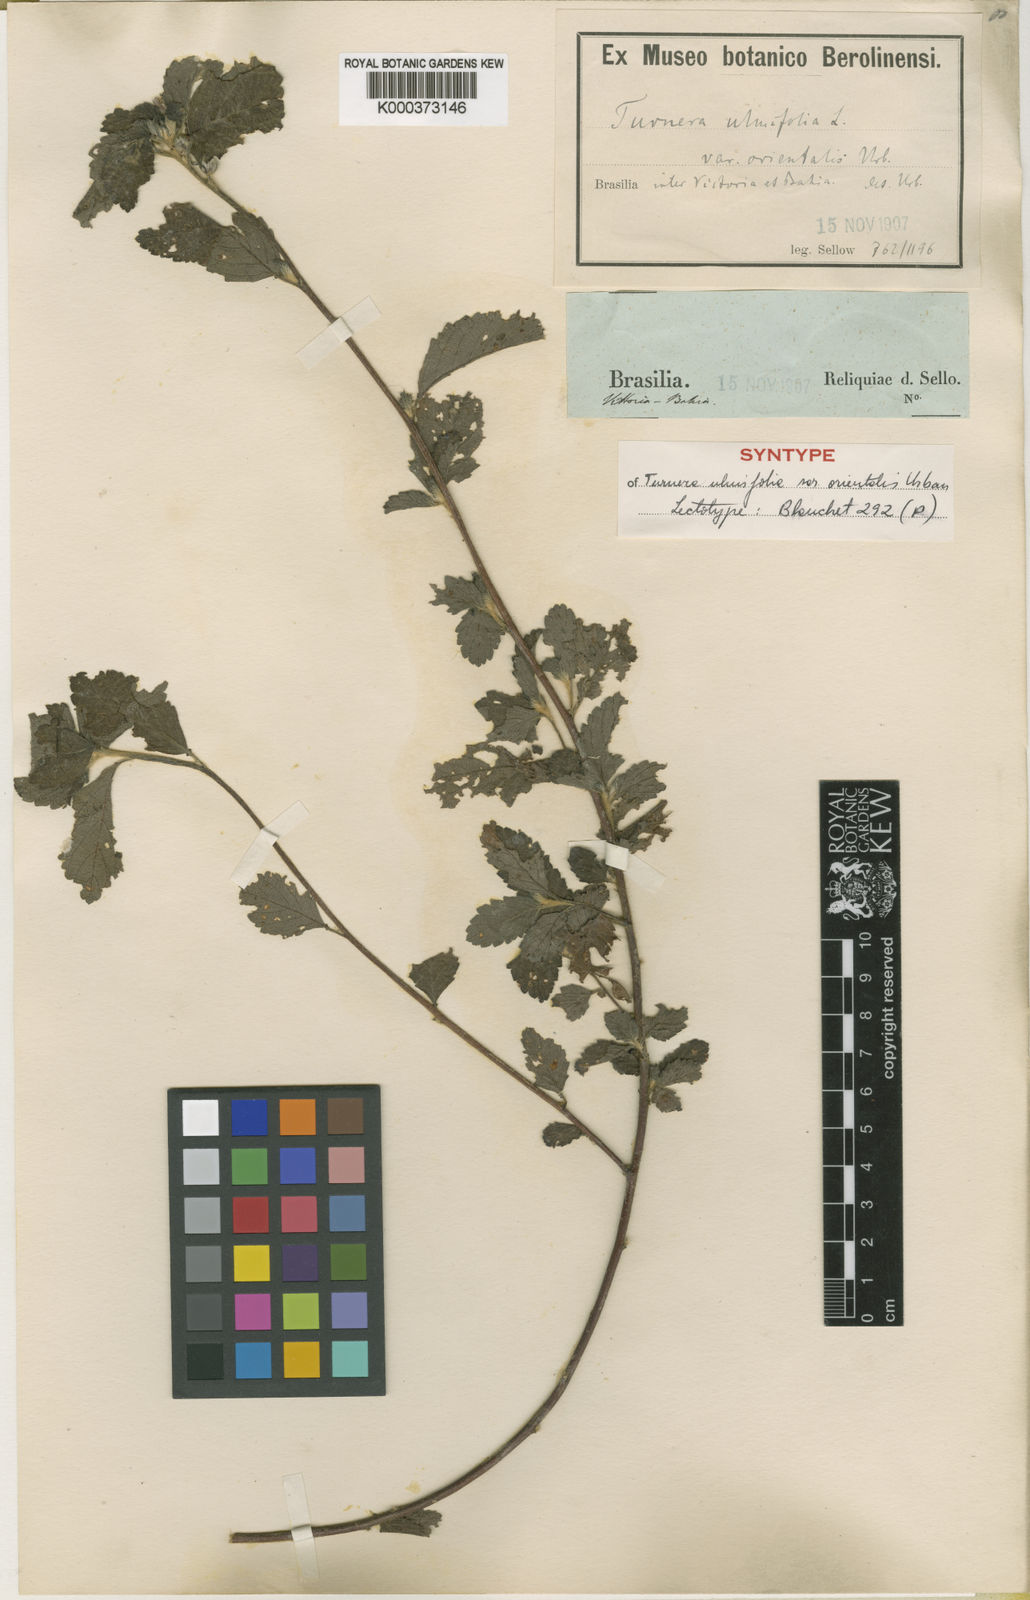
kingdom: Plantae
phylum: Tracheophyta
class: Magnoliopsida
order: Malpighiales
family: Turneraceae
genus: Turnera
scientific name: Turnera orientalis
